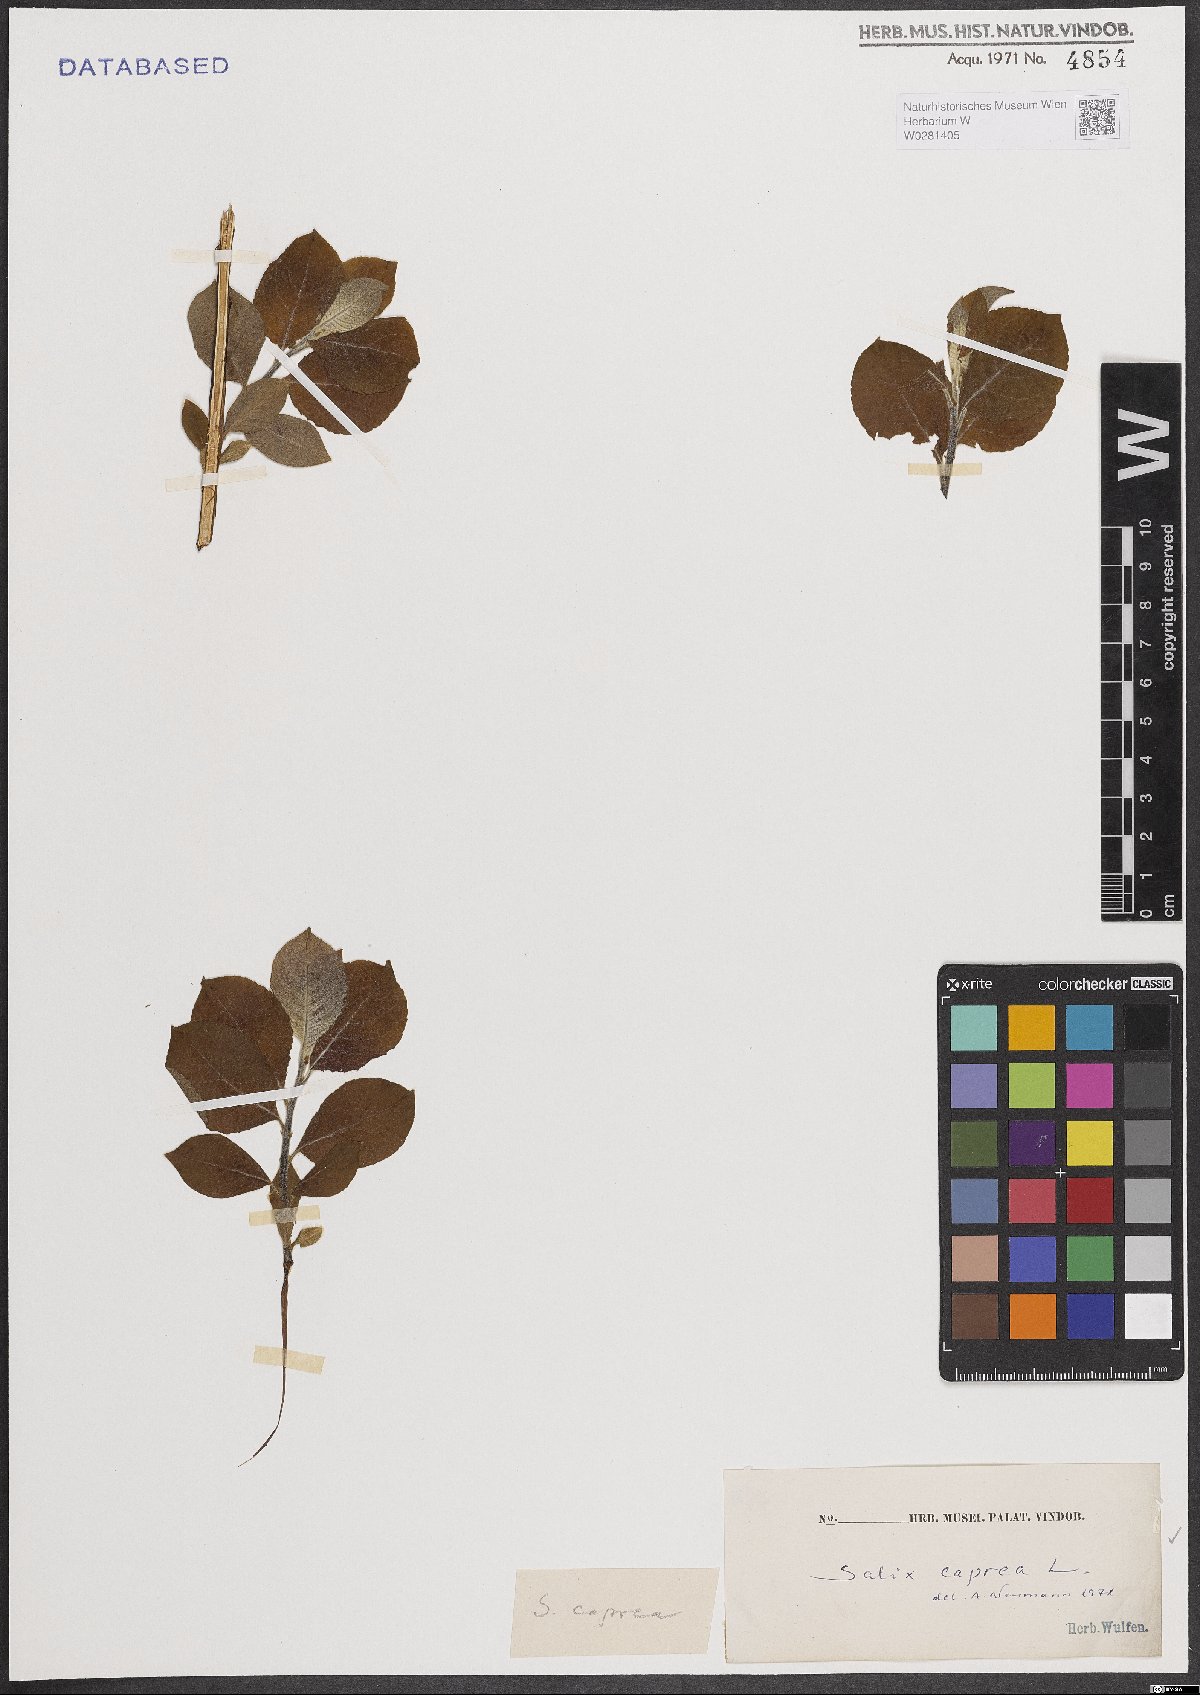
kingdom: Plantae
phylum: Tracheophyta
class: Magnoliopsida
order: Malpighiales
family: Salicaceae
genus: Salix
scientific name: Salix caprea
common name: Goat willow
